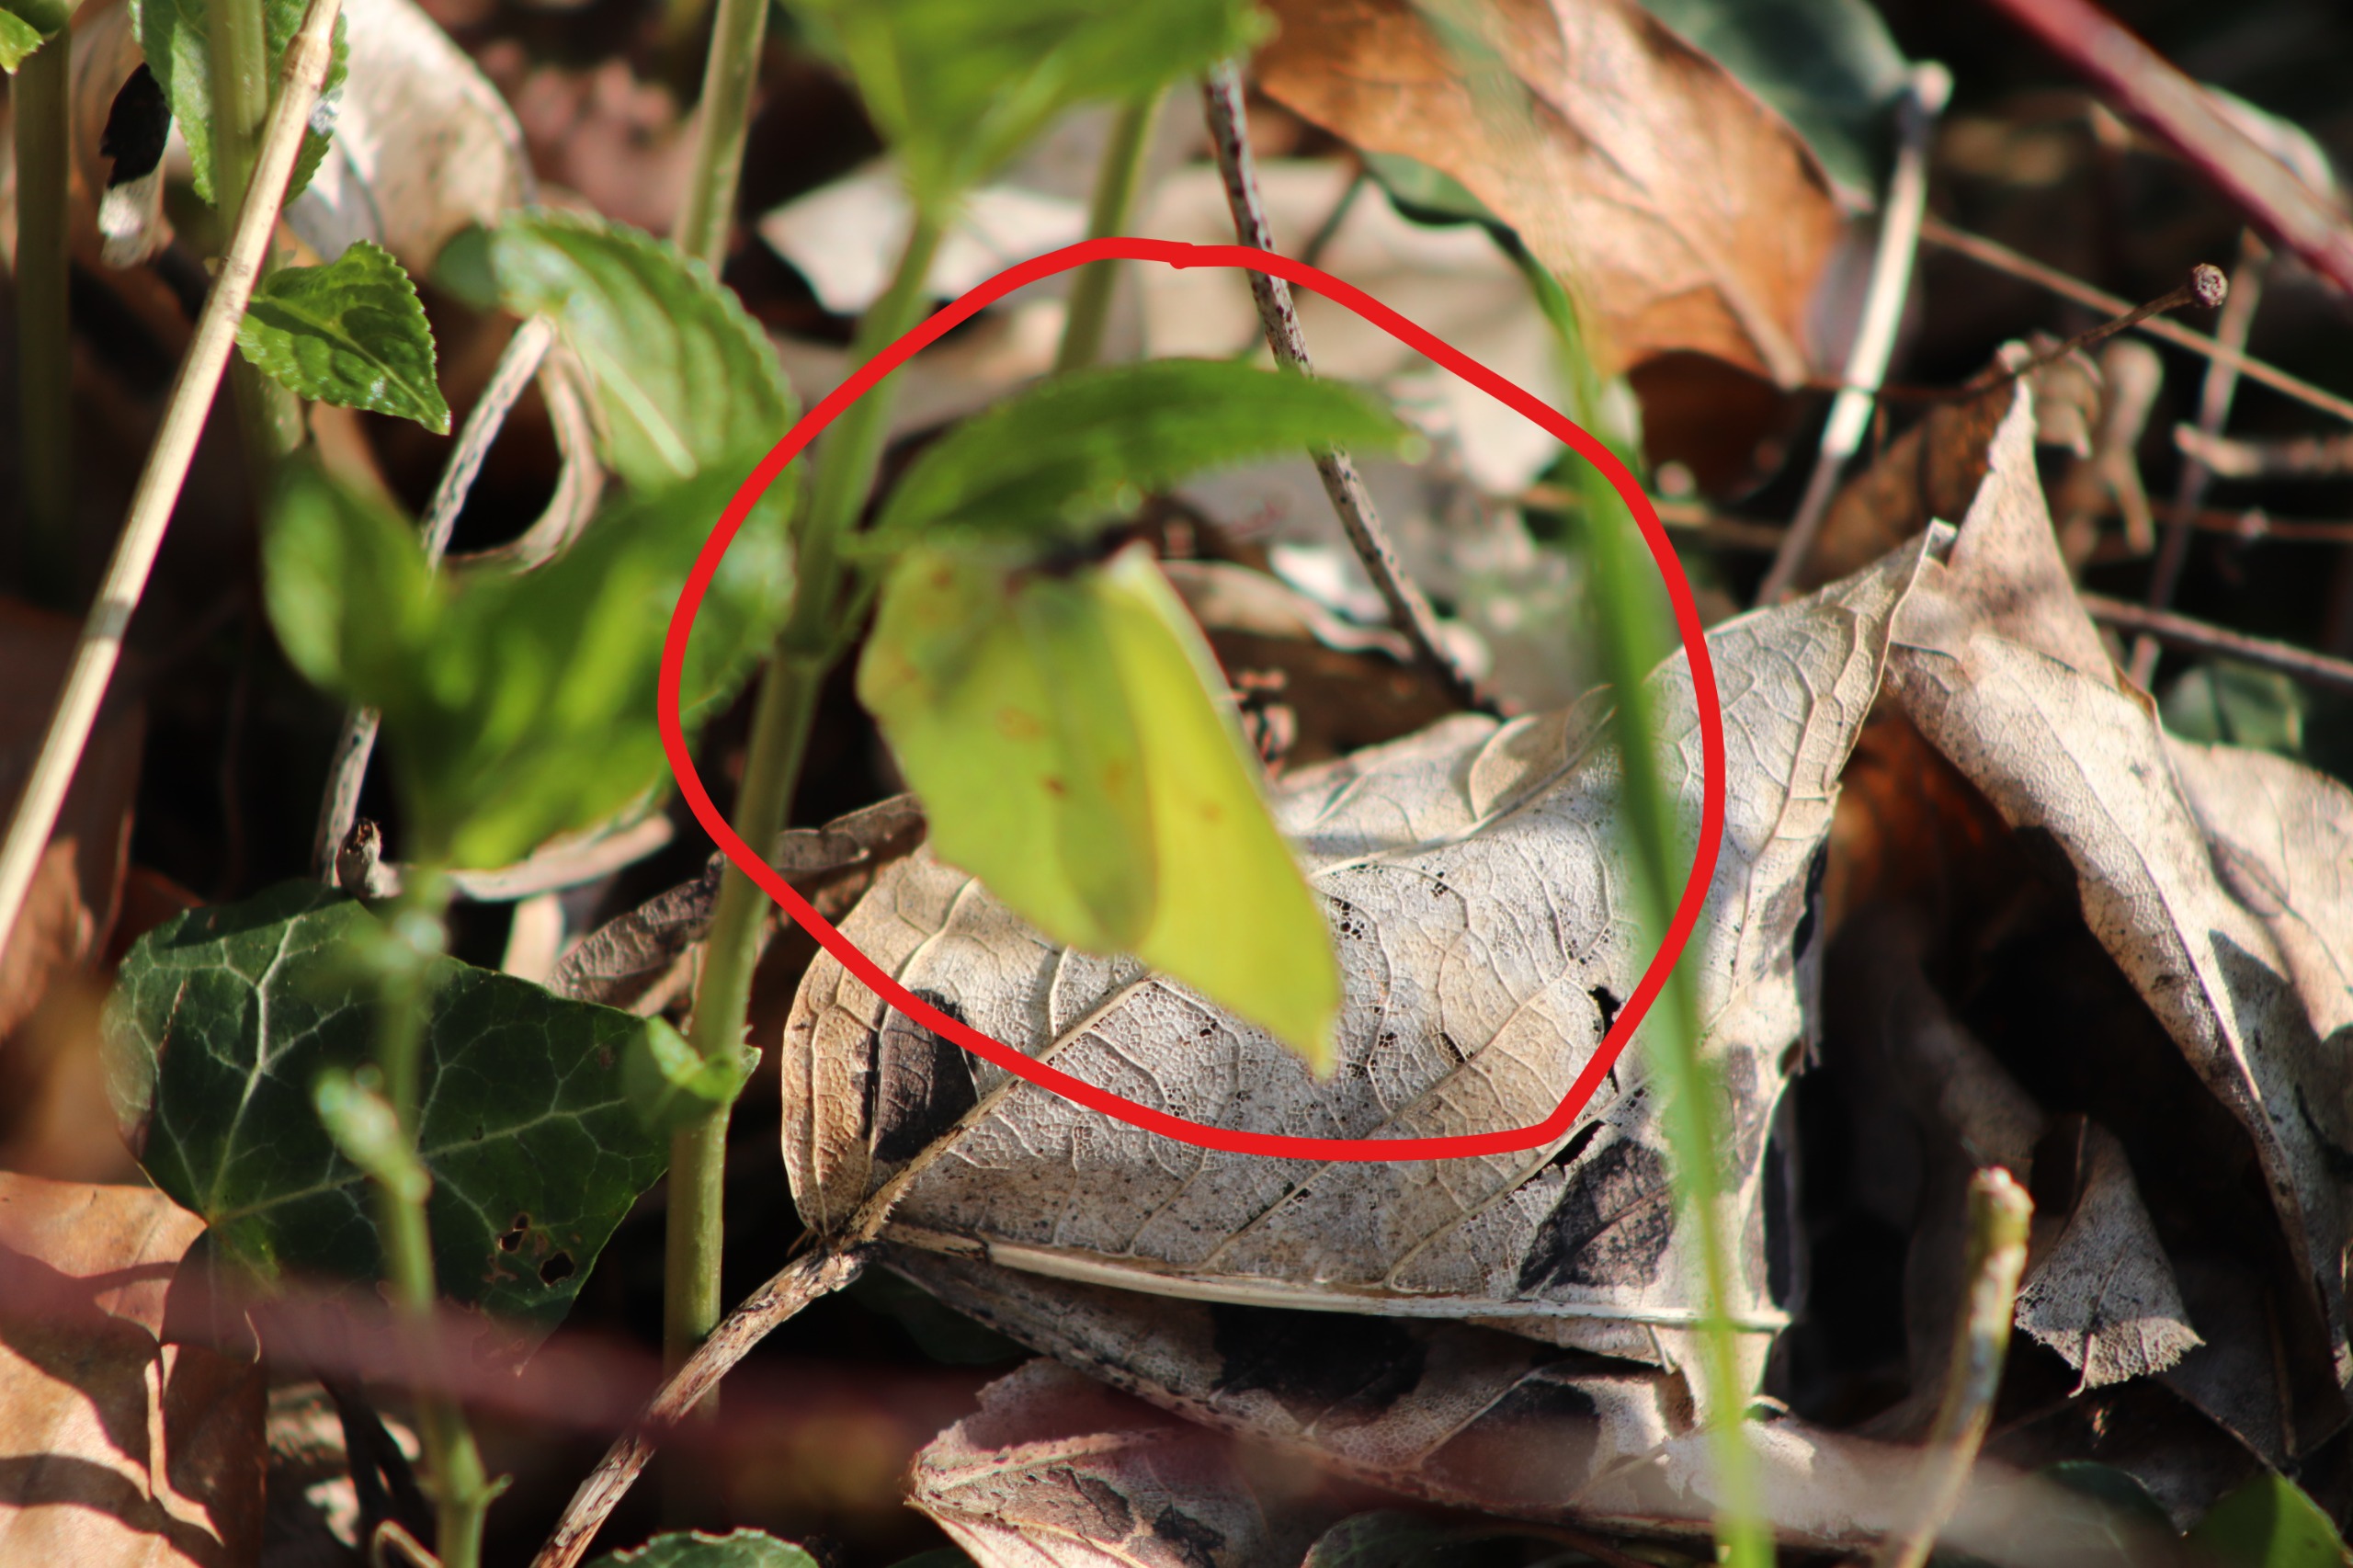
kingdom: Animalia
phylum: Arthropoda
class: Insecta
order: Lepidoptera
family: Pieridae
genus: Gonepteryx
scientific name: Gonepteryx rhamni
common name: Citronsommerfugl
